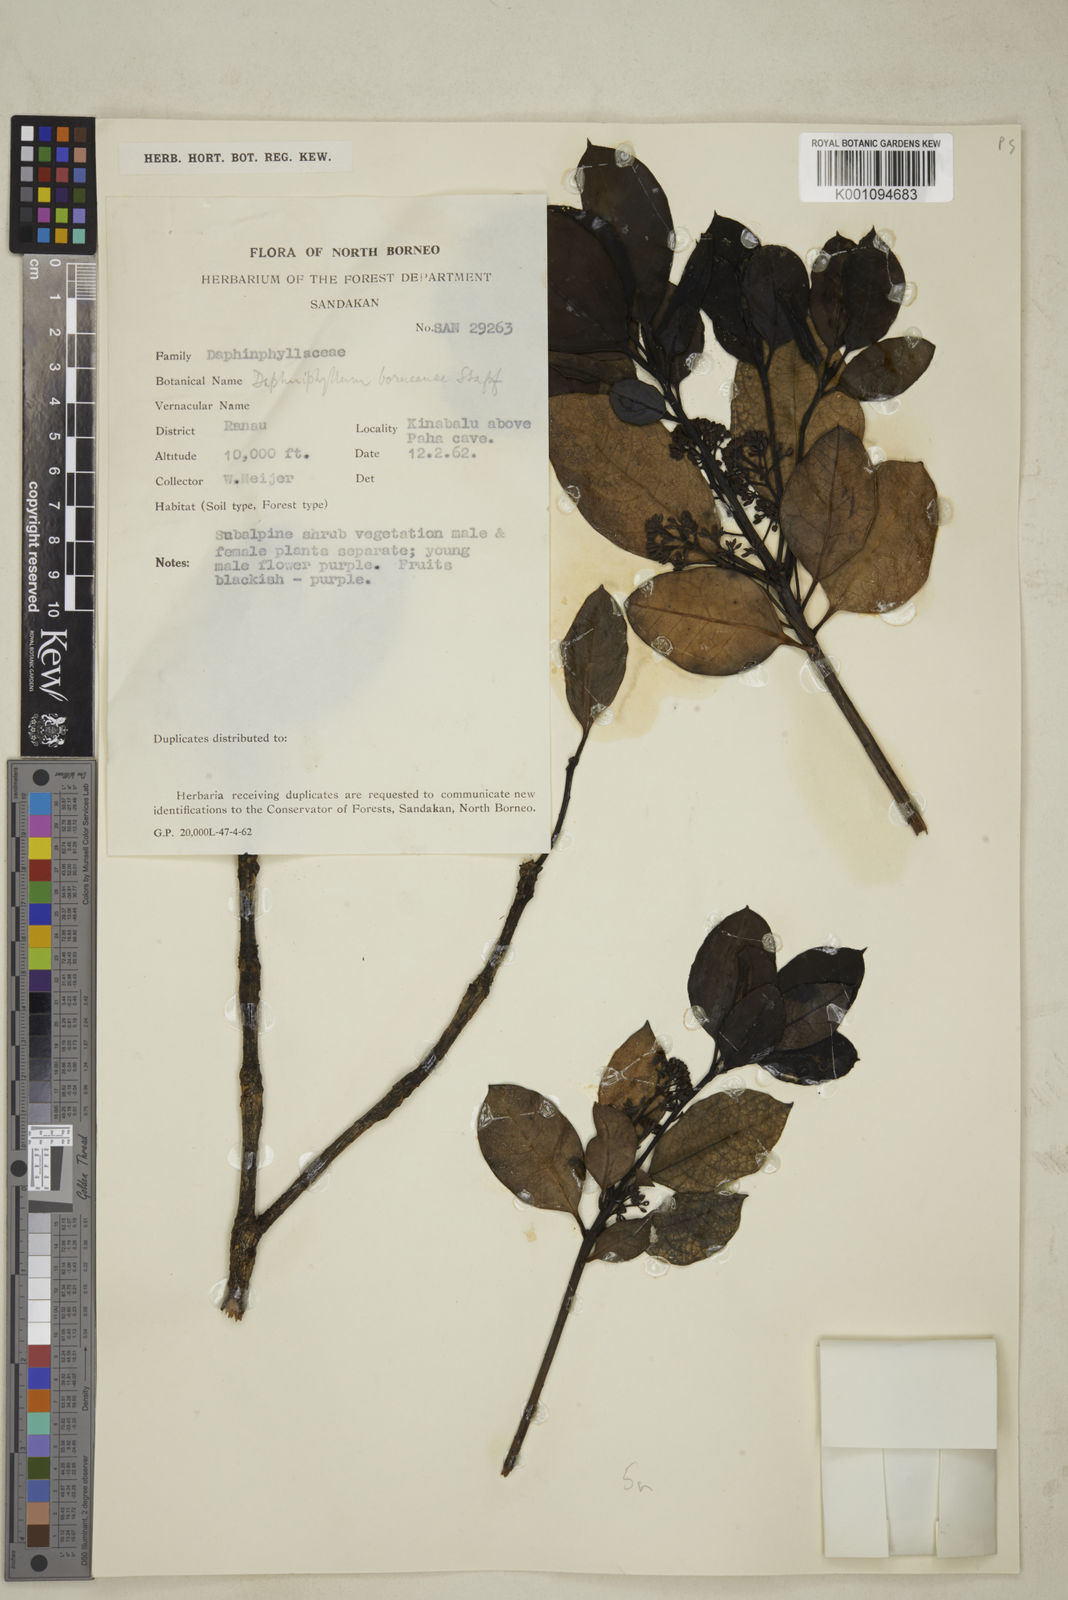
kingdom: Plantae
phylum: Tracheophyta
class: Magnoliopsida
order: Saxifragales
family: Daphniphyllaceae
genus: Daphniphyllum
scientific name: Daphniphyllum borneense
